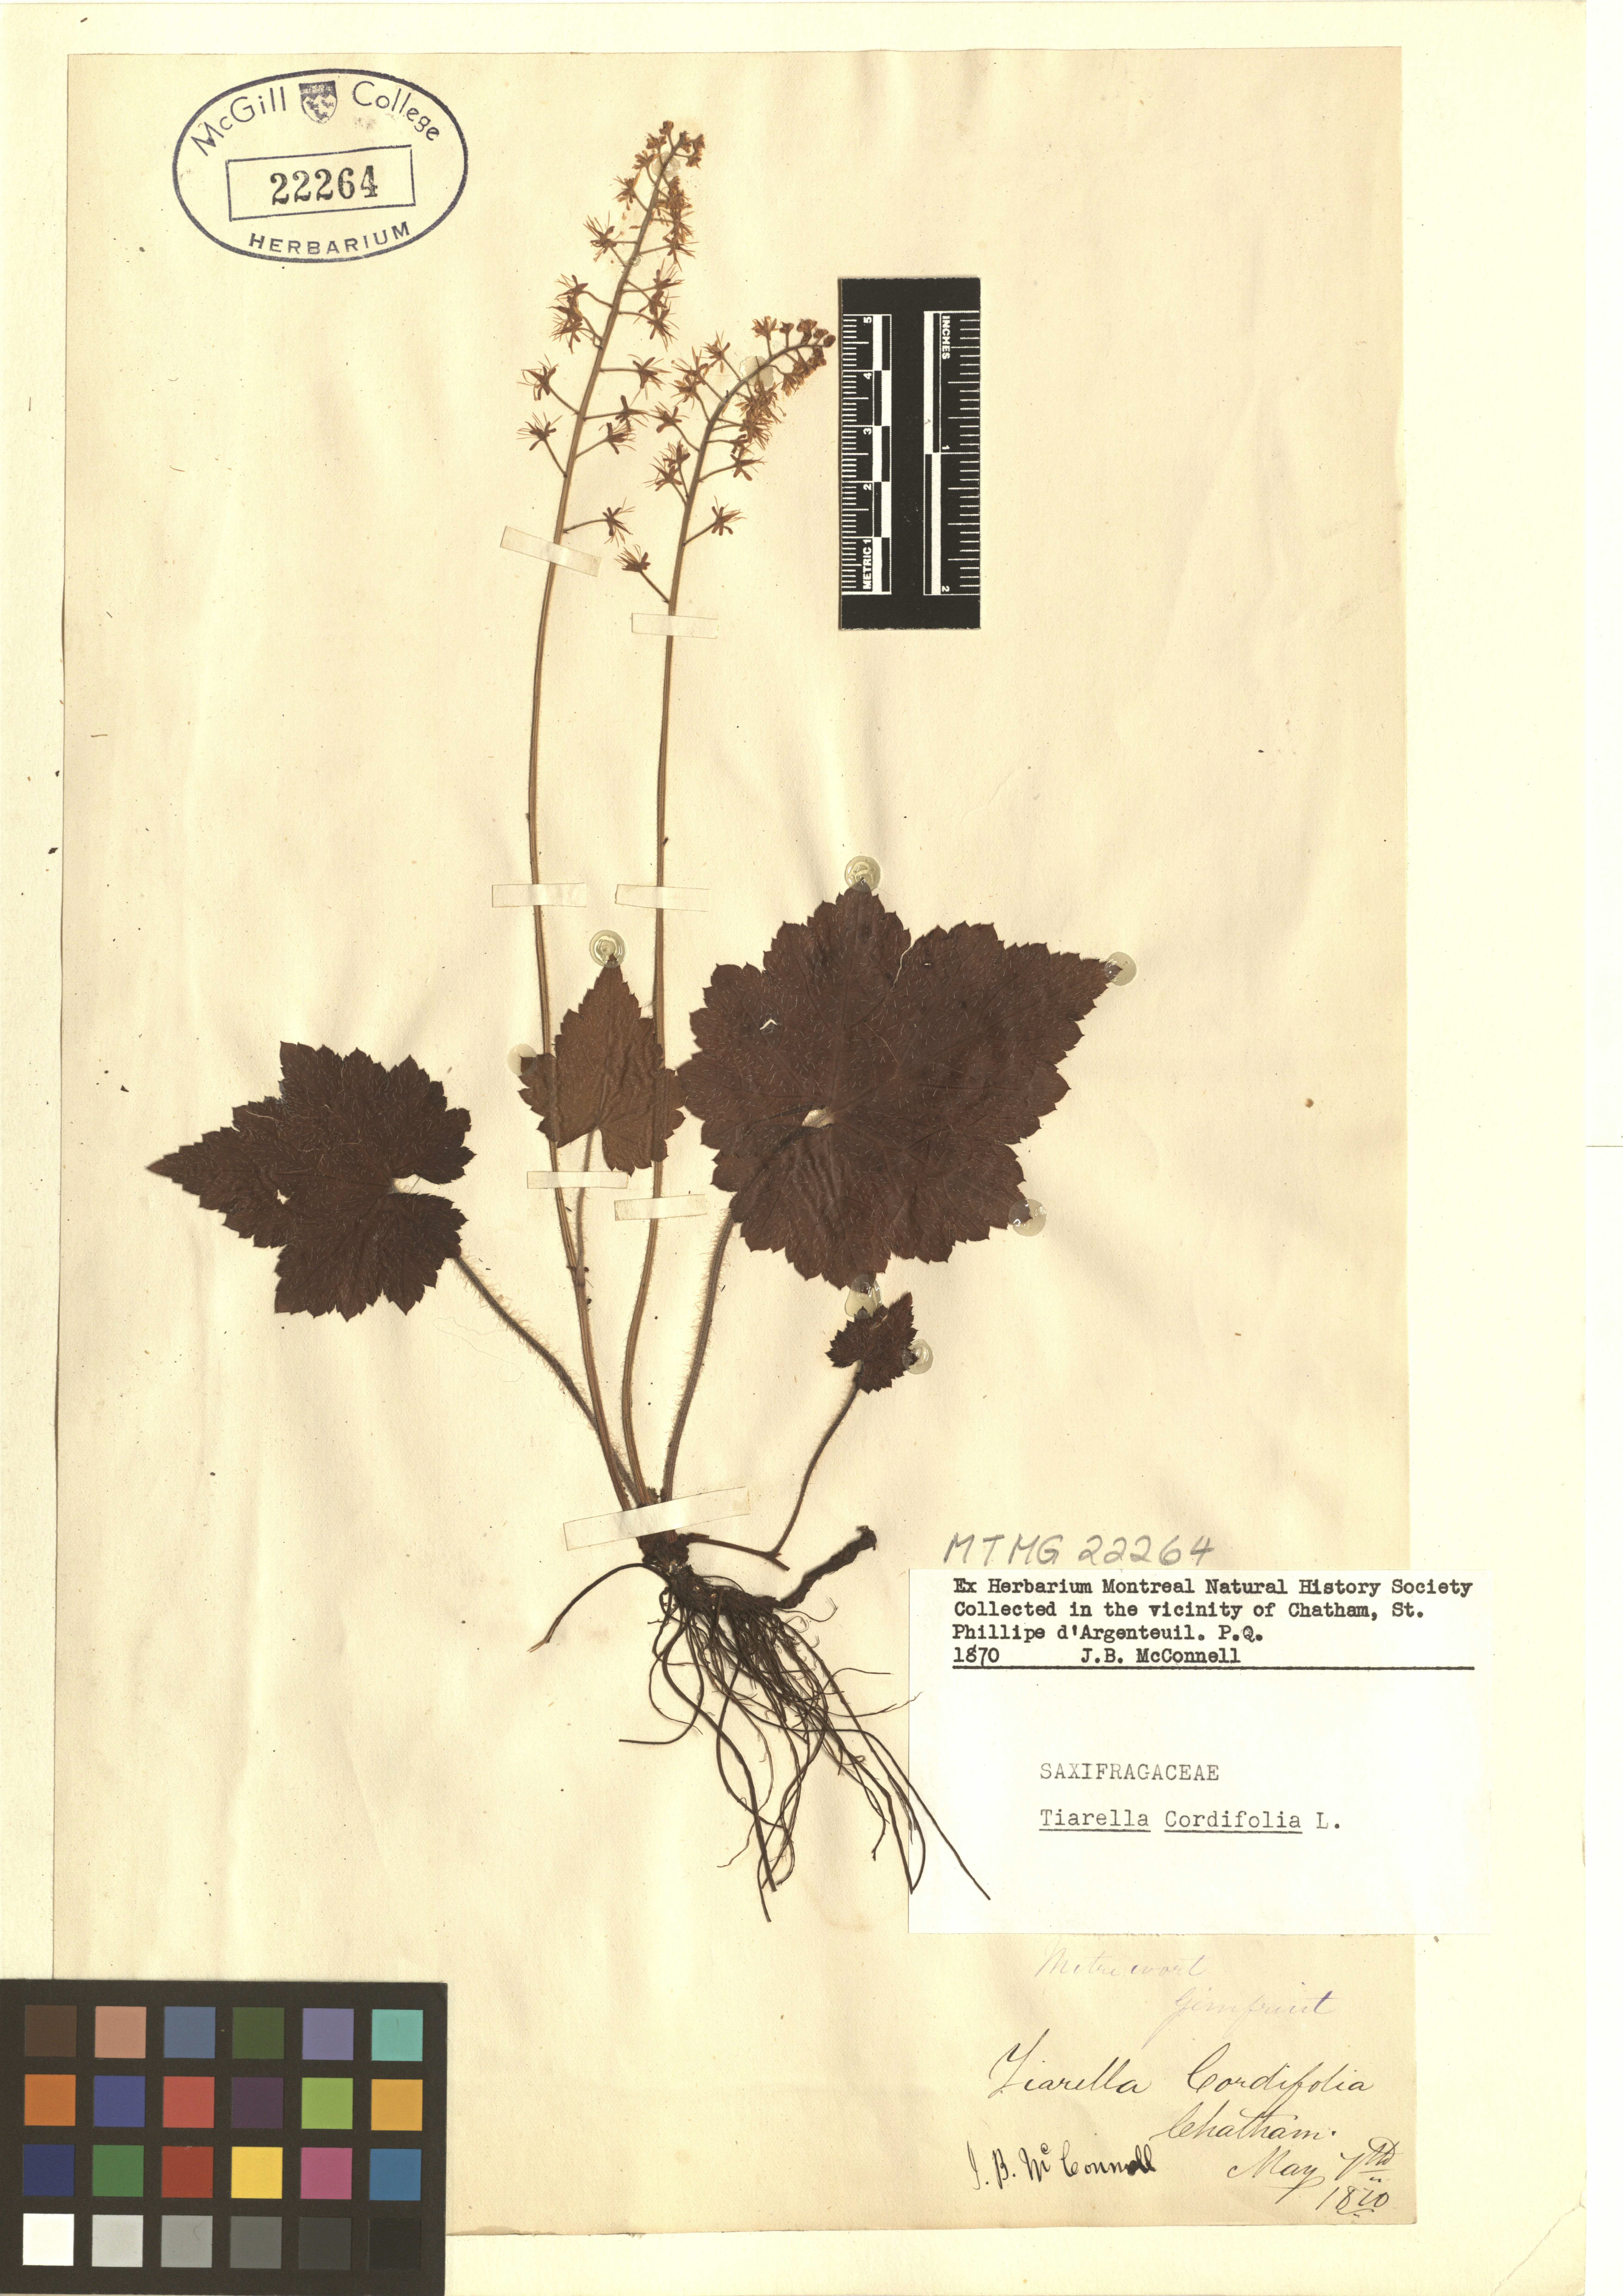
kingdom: Plantae
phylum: Tracheophyta
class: Magnoliopsida
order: Saxifragales
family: Saxifragaceae
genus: Tiarella
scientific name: Tiarella cordifolia
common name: Foamflower
